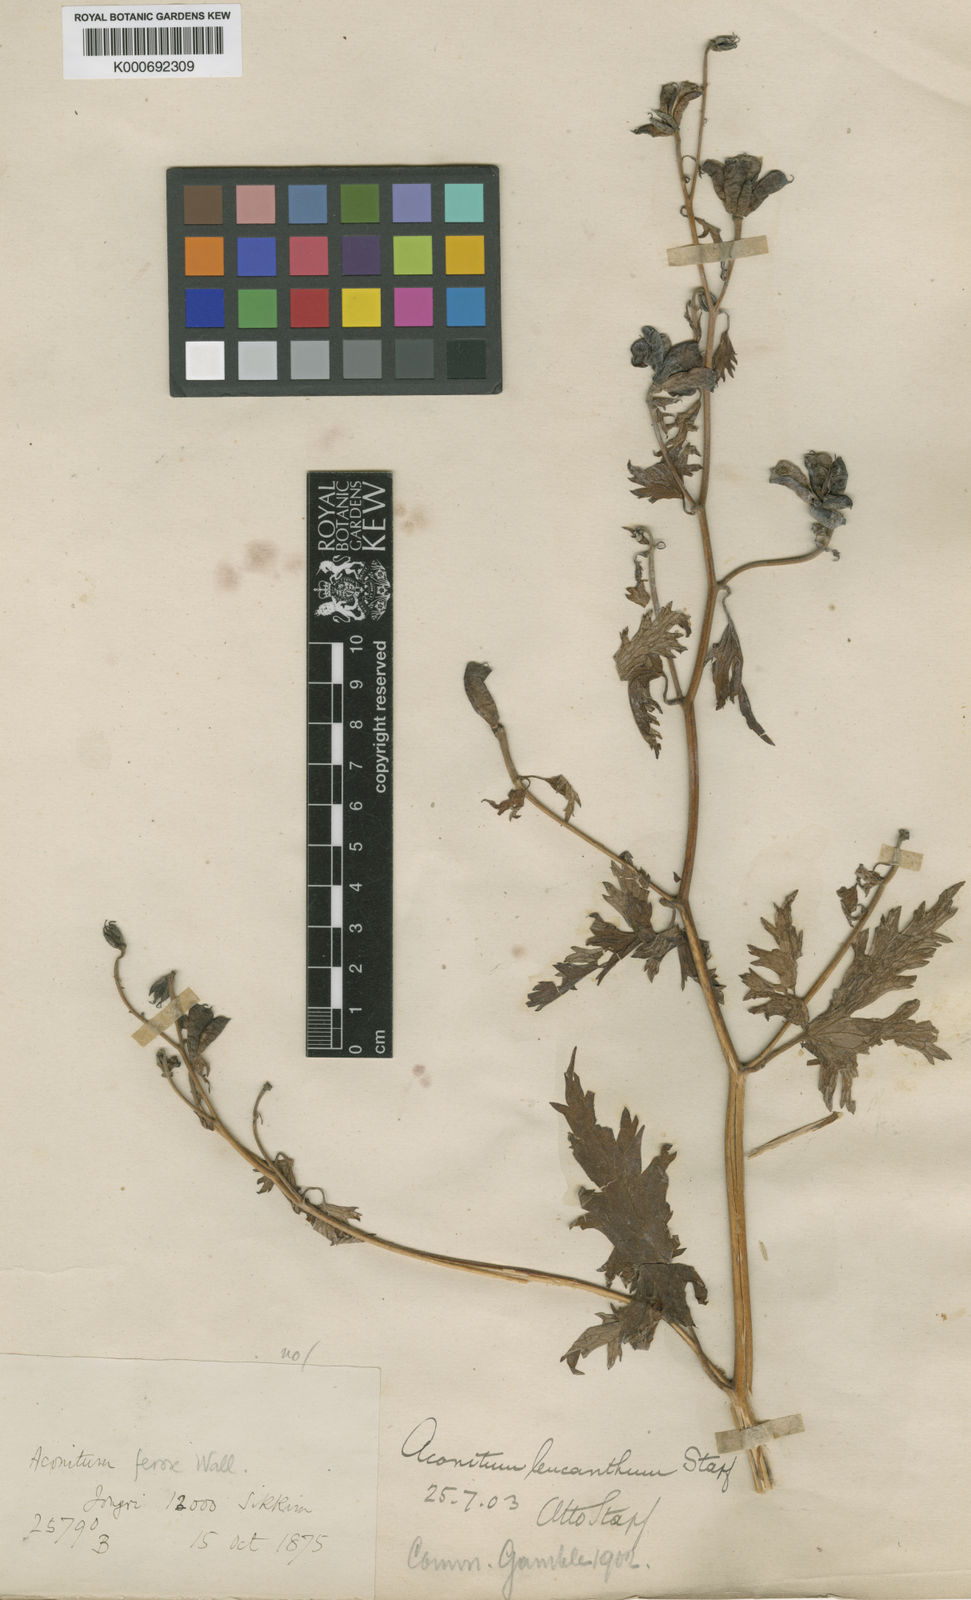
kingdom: Plantae
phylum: Tracheophyta
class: Magnoliopsida
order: Ranunculales
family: Ranunculaceae
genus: Aconitum
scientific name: Aconitum
